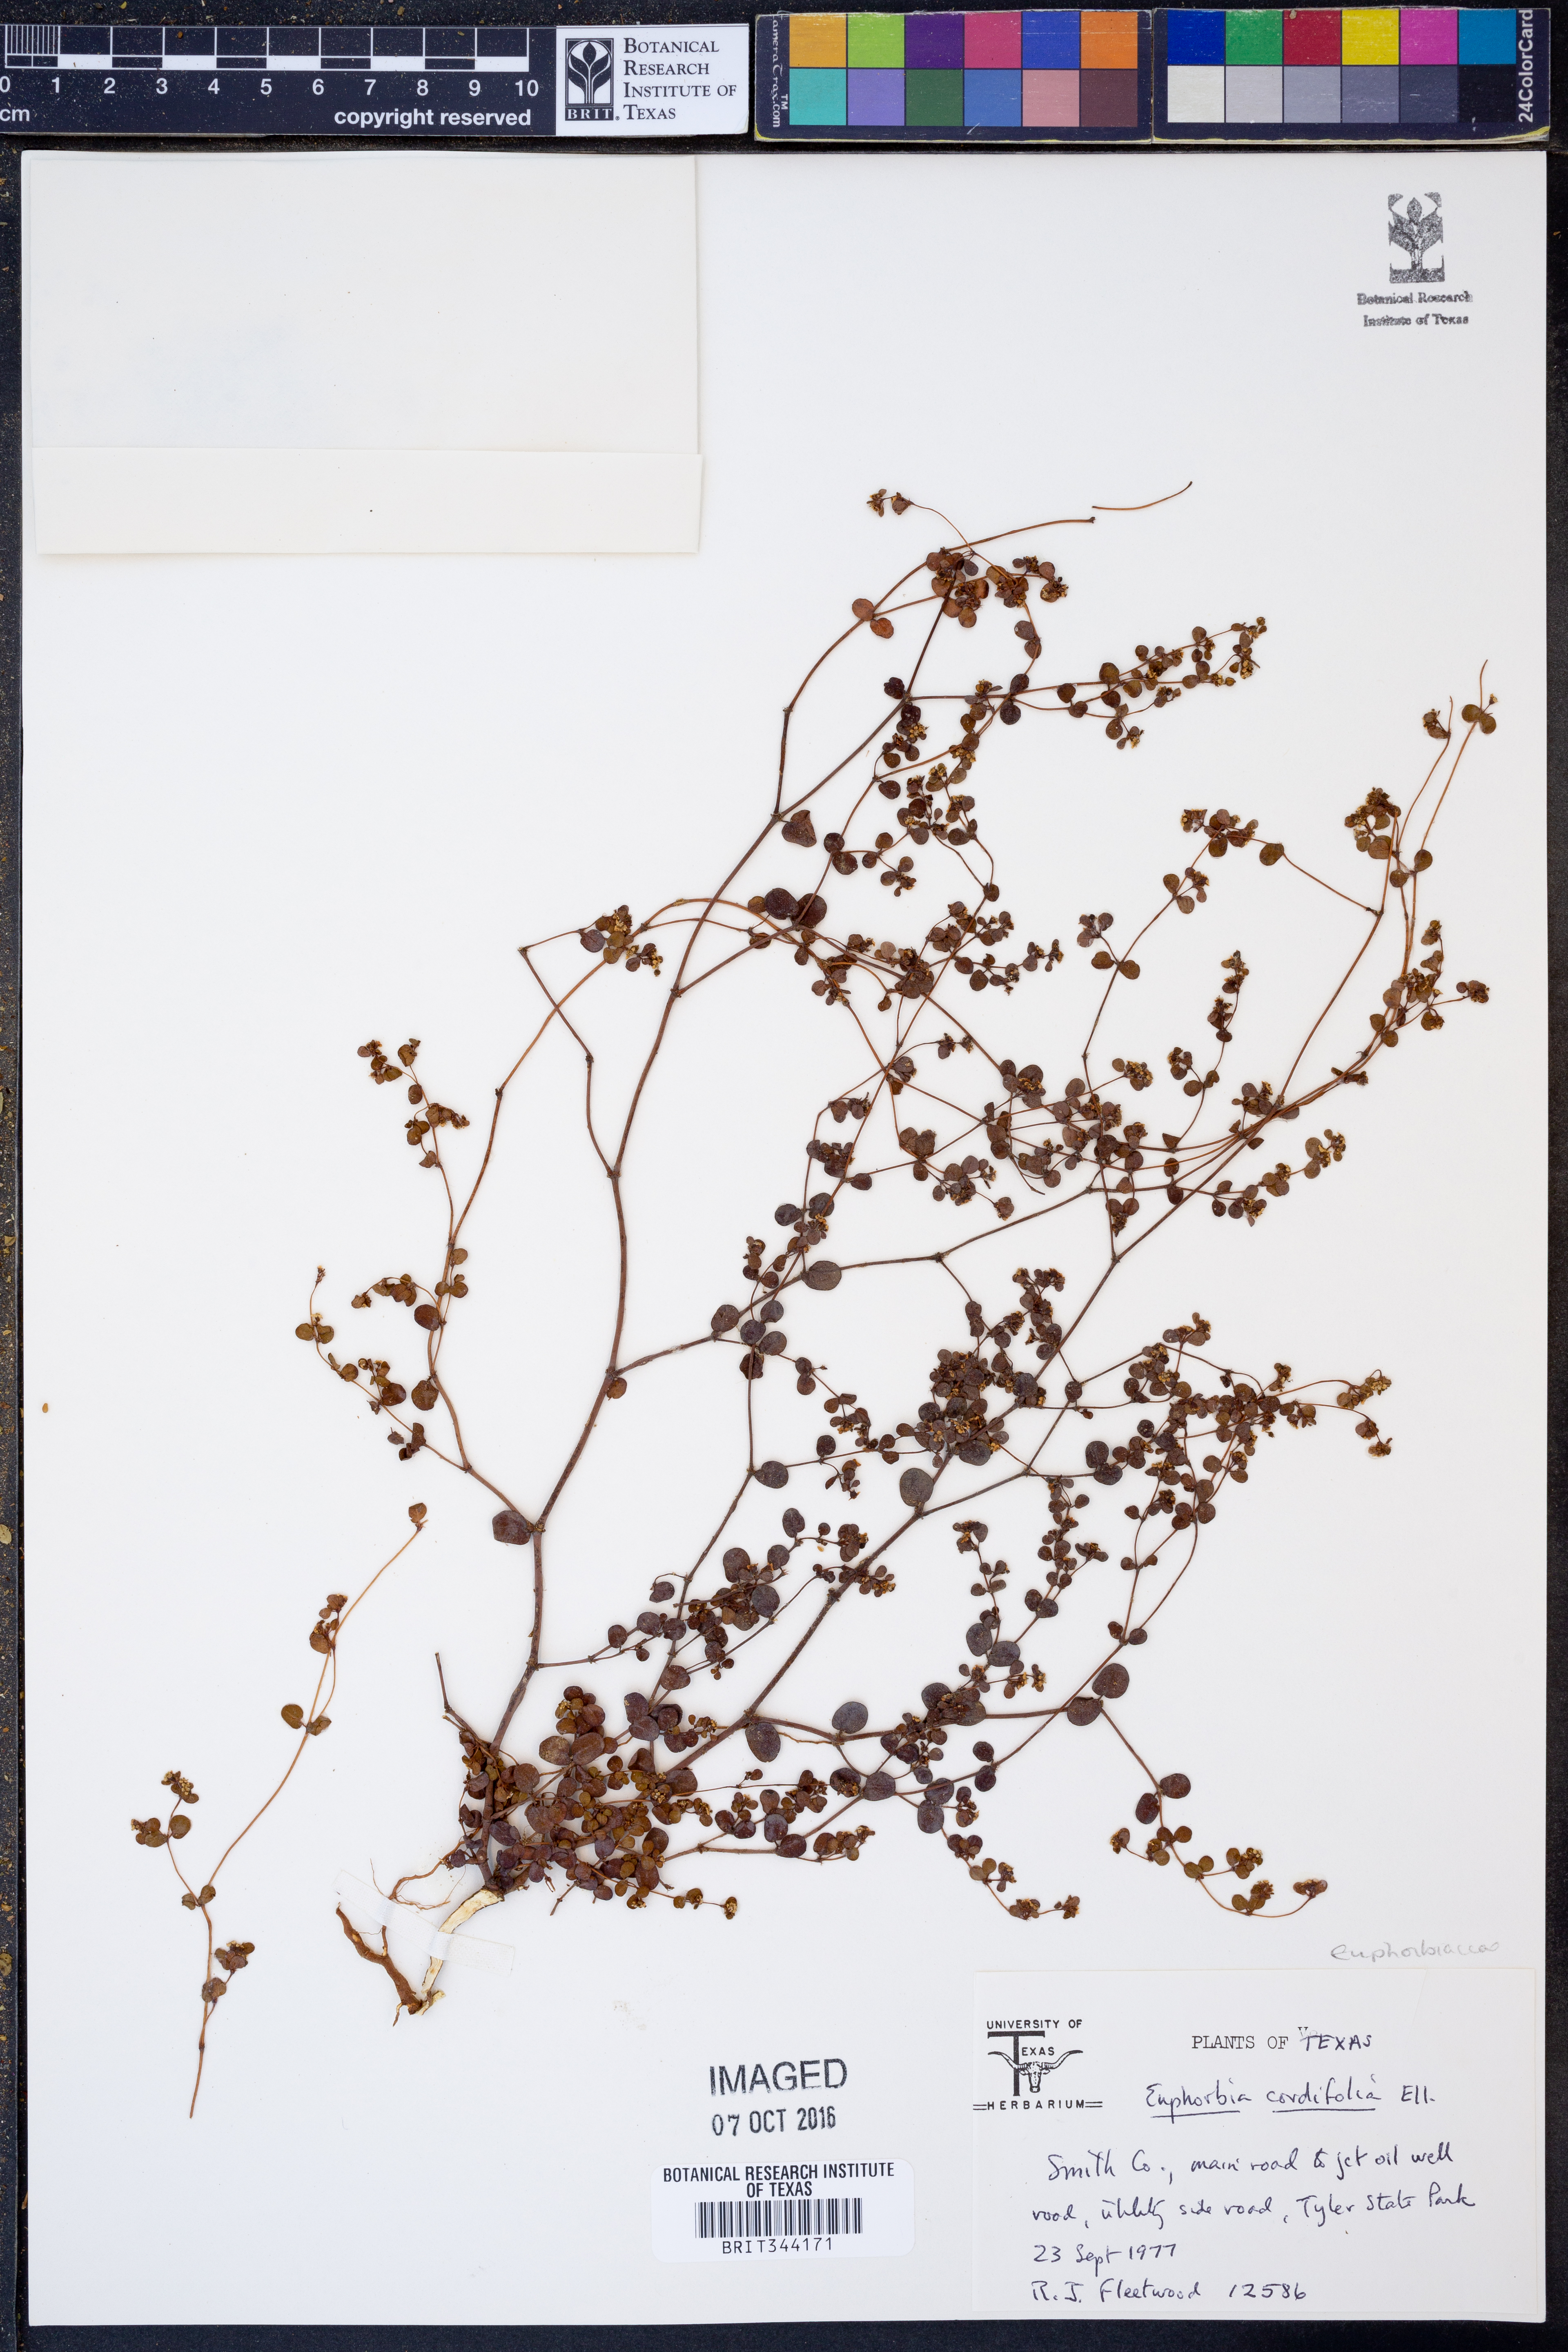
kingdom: Plantae
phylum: Tracheophyta
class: Magnoliopsida
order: Malpighiales
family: Euphorbiaceae
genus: Euphorbia
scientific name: Euphorbia cordifolia
